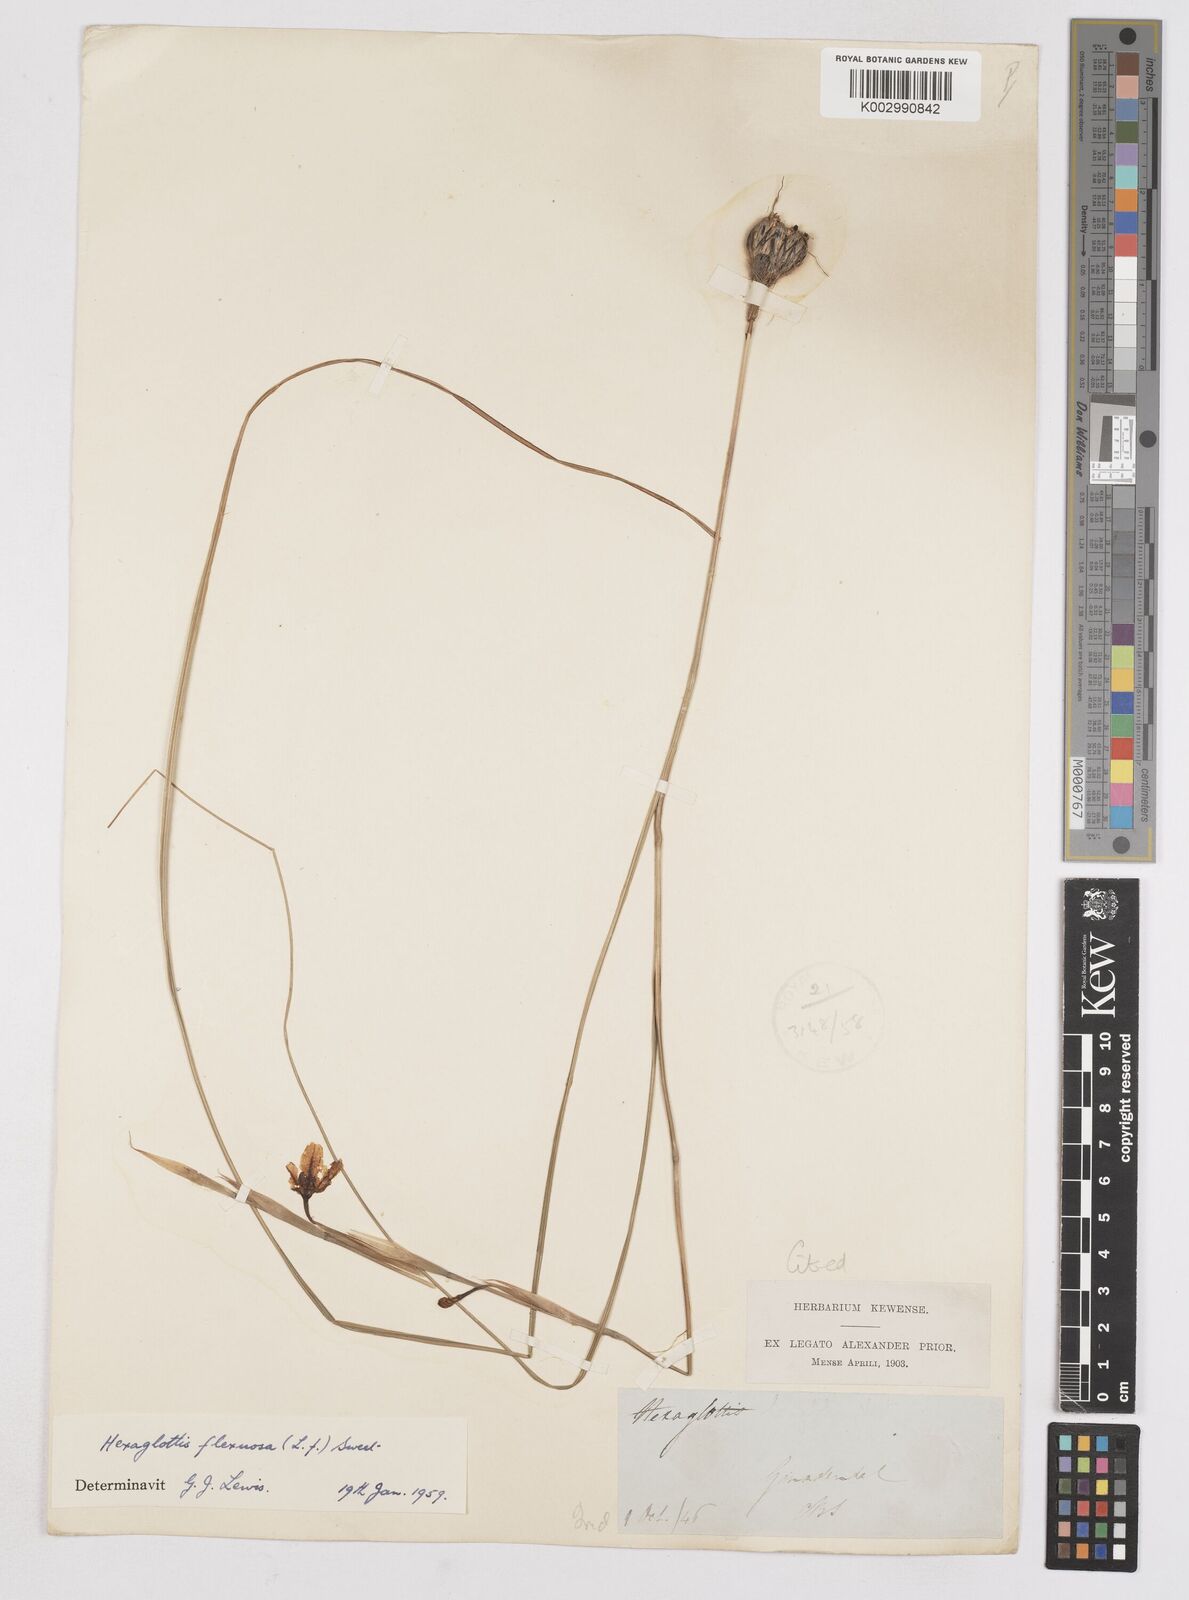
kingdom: Plantae
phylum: Tracheophyta
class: Liliopsida
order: Asparagales
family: Iridaceae
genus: Moraea
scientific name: Moraea lewisiae
